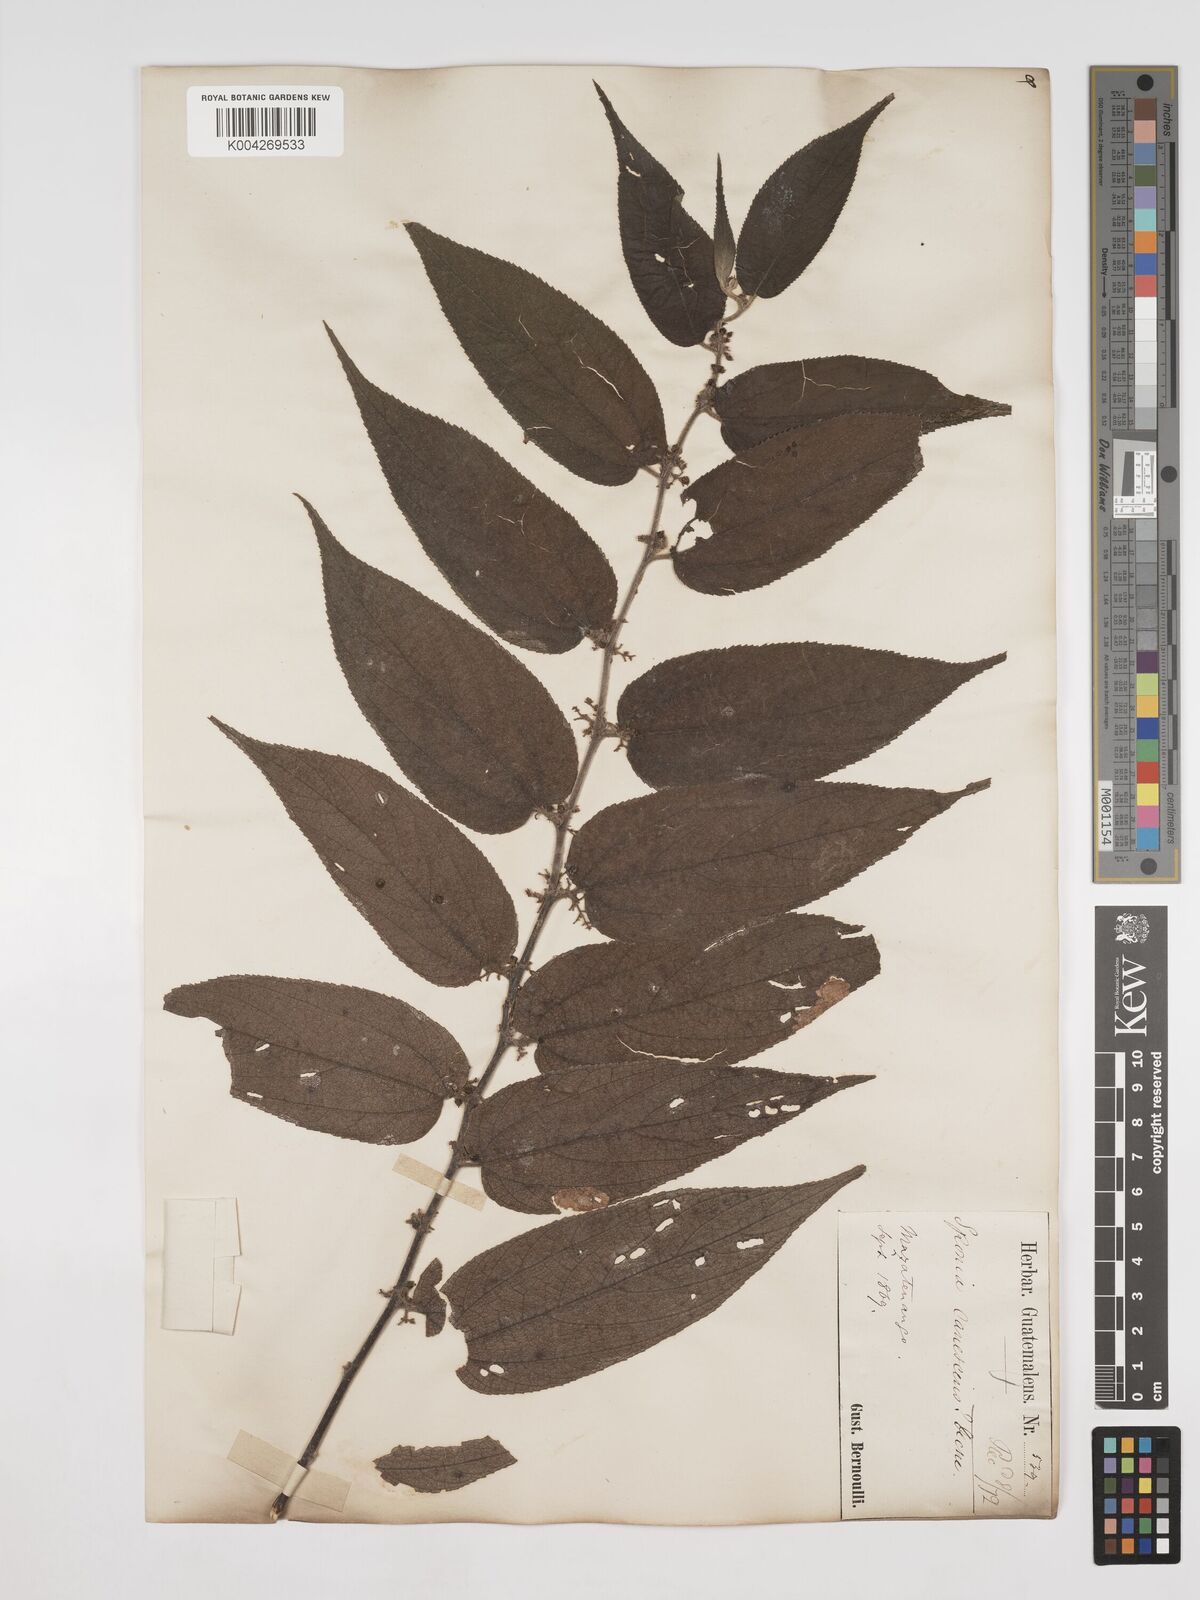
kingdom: Plantae
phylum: Tracheophyta
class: Magnoliopsida
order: Rosales
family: Cannabaceae
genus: Trema
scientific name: Trema micranthum
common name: Jamaican nettletree
